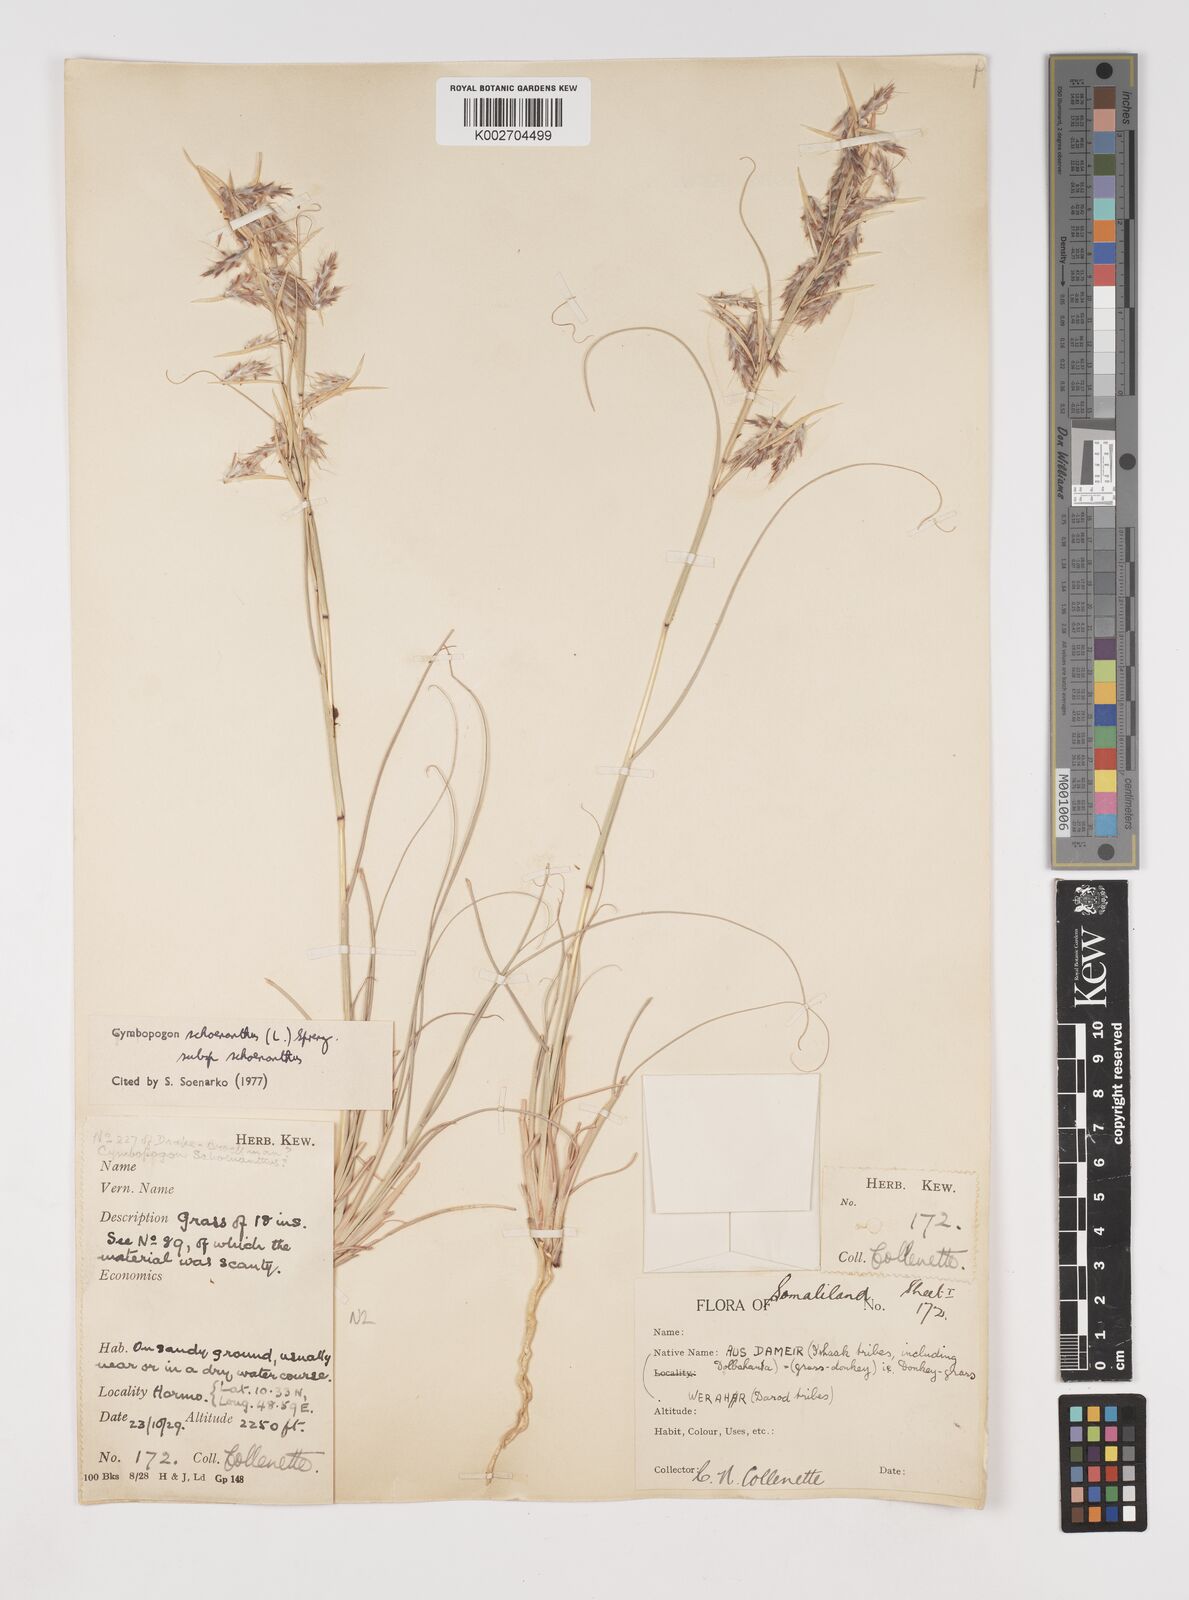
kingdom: Plantae
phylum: Tracheophyta
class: Liliopsida
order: Poales
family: Poaceae
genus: Cymbopogon
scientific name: Cymbopogon schoenanthus
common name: Geranium grass
